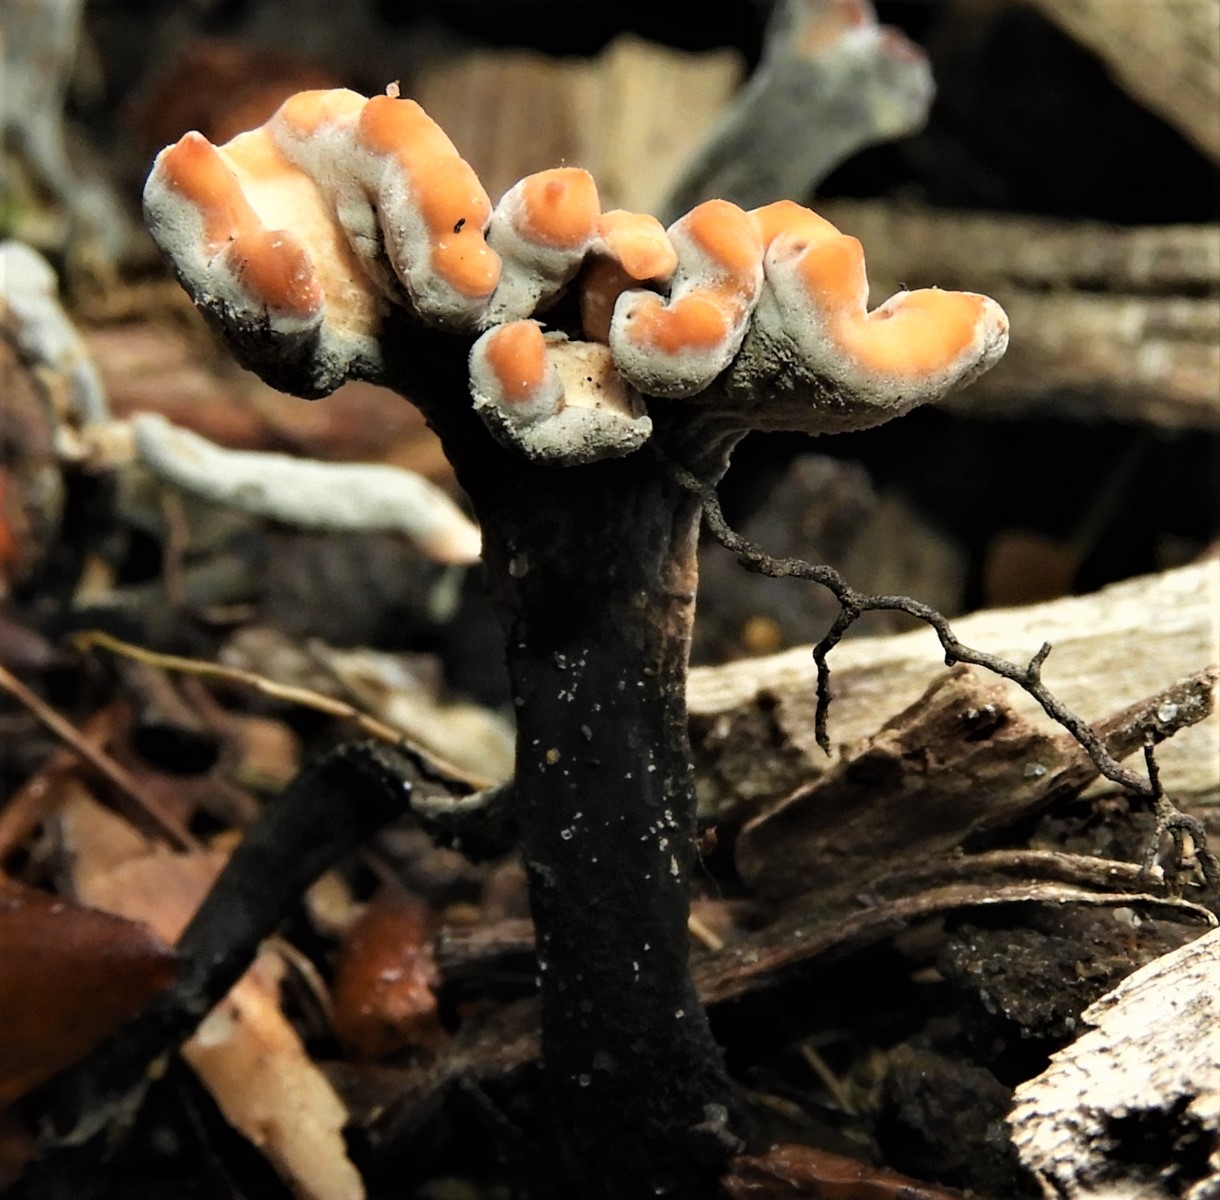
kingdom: Fungi
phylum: Ascomycota
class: Sordariomycetes
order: Xylariales
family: Xylariaceae
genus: Xylaria
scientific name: Xylaria hypoxylon
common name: grenet stødsvamp
